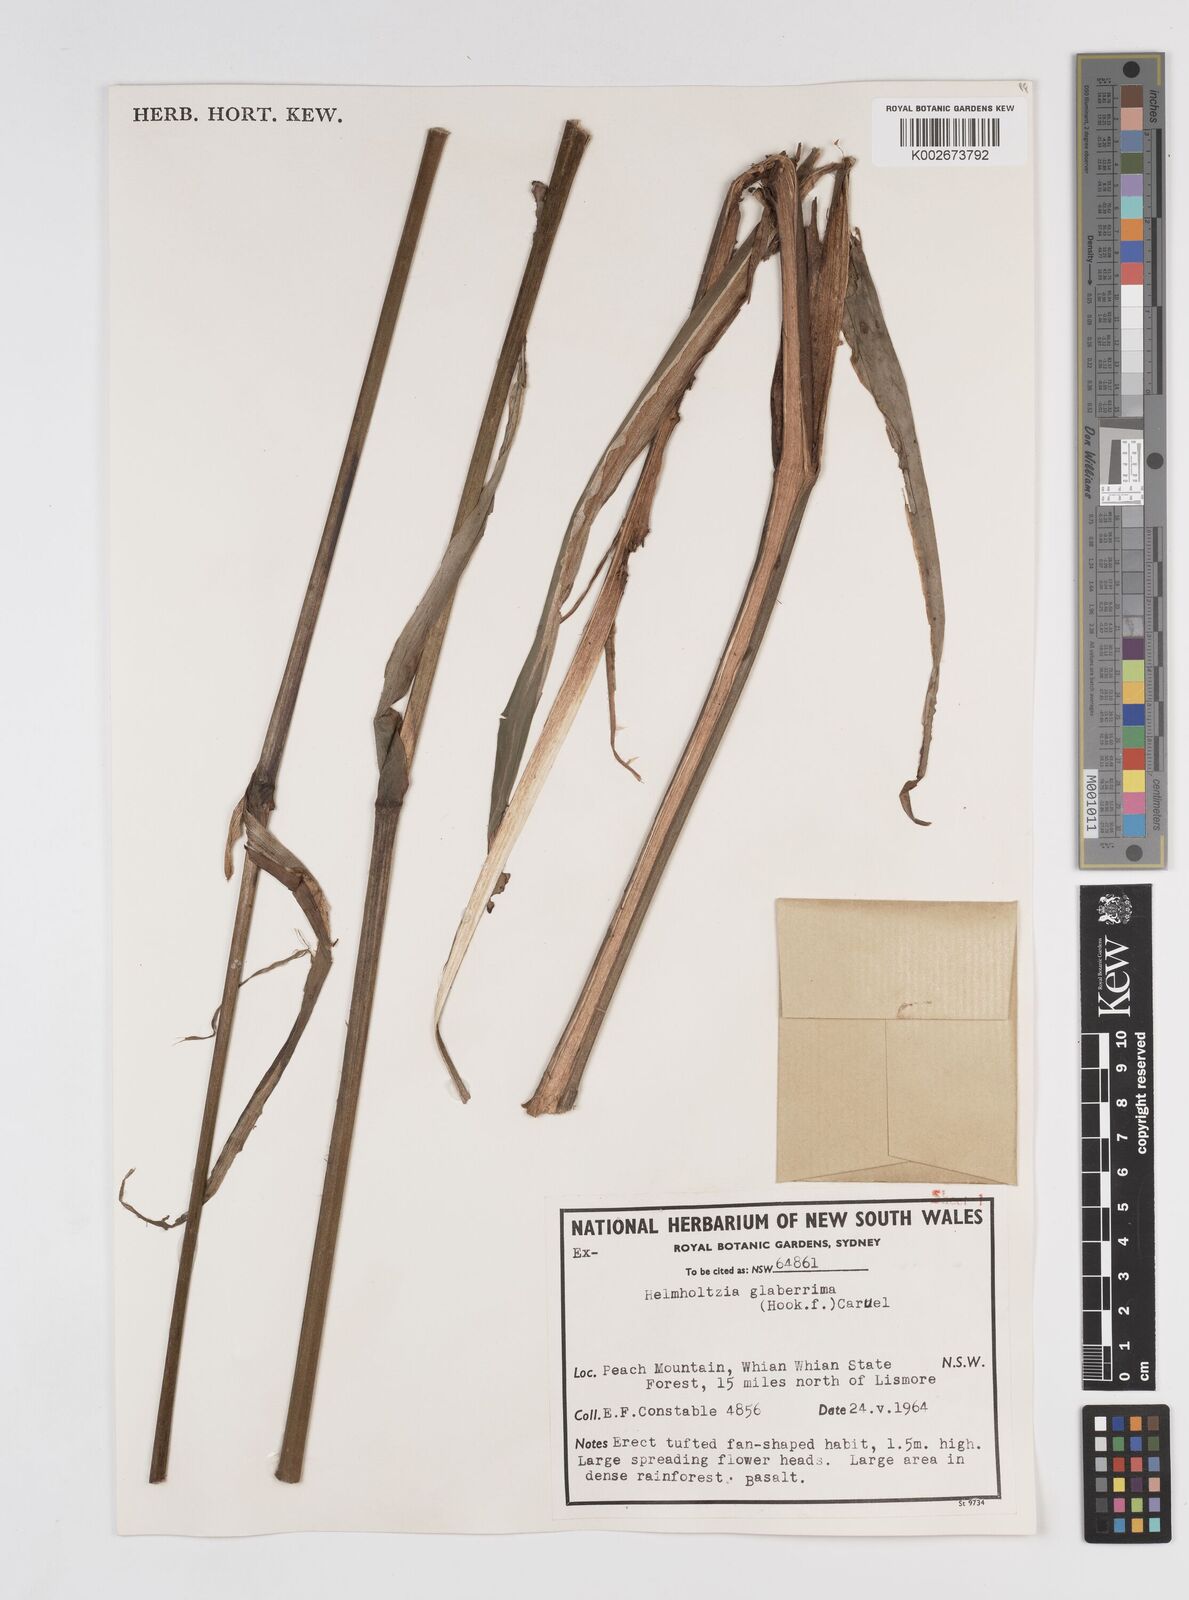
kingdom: Plantae
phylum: Tracheophyta
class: Liliopsida
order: Commelinales
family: Philydraceae
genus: Helmholtzia
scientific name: Helmholtzia glaberrima
